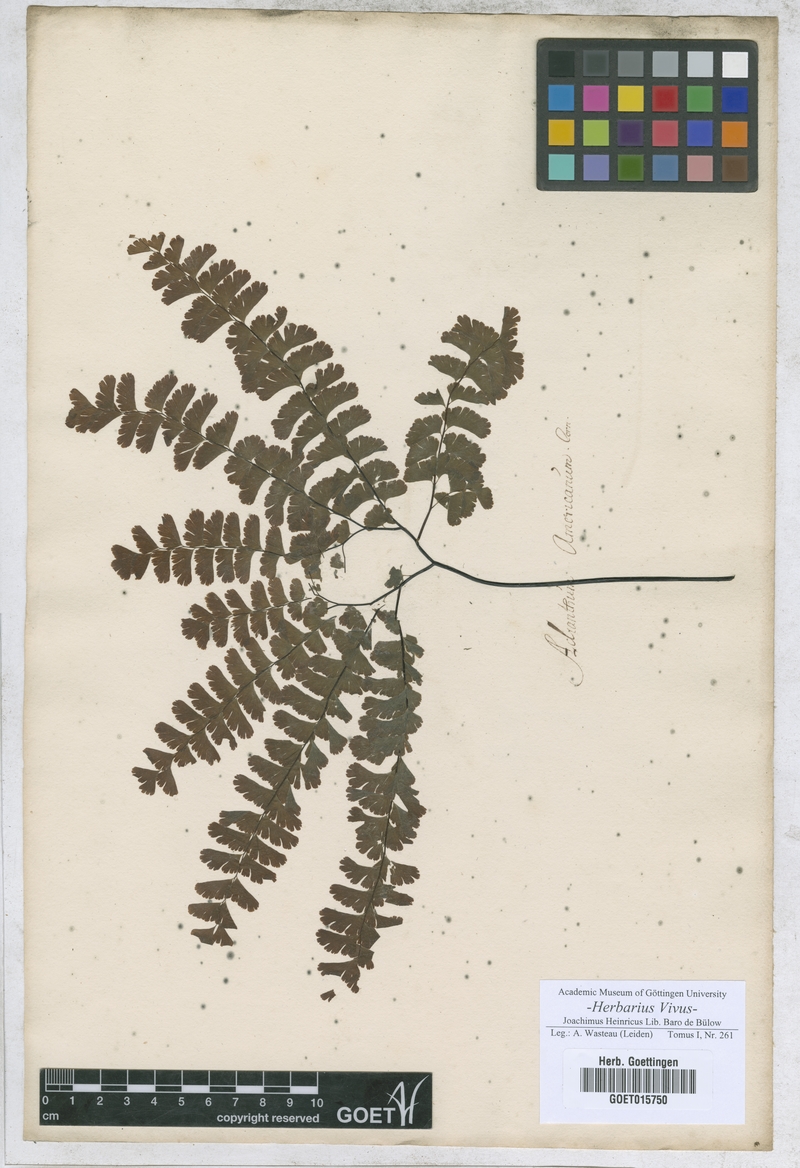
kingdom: Plantae
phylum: Tracheophyta
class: Polypodiopsida
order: Polypodiales
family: Pteridaceae
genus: Adiantum
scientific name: Adiantum pedatum
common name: Five-finger fern
